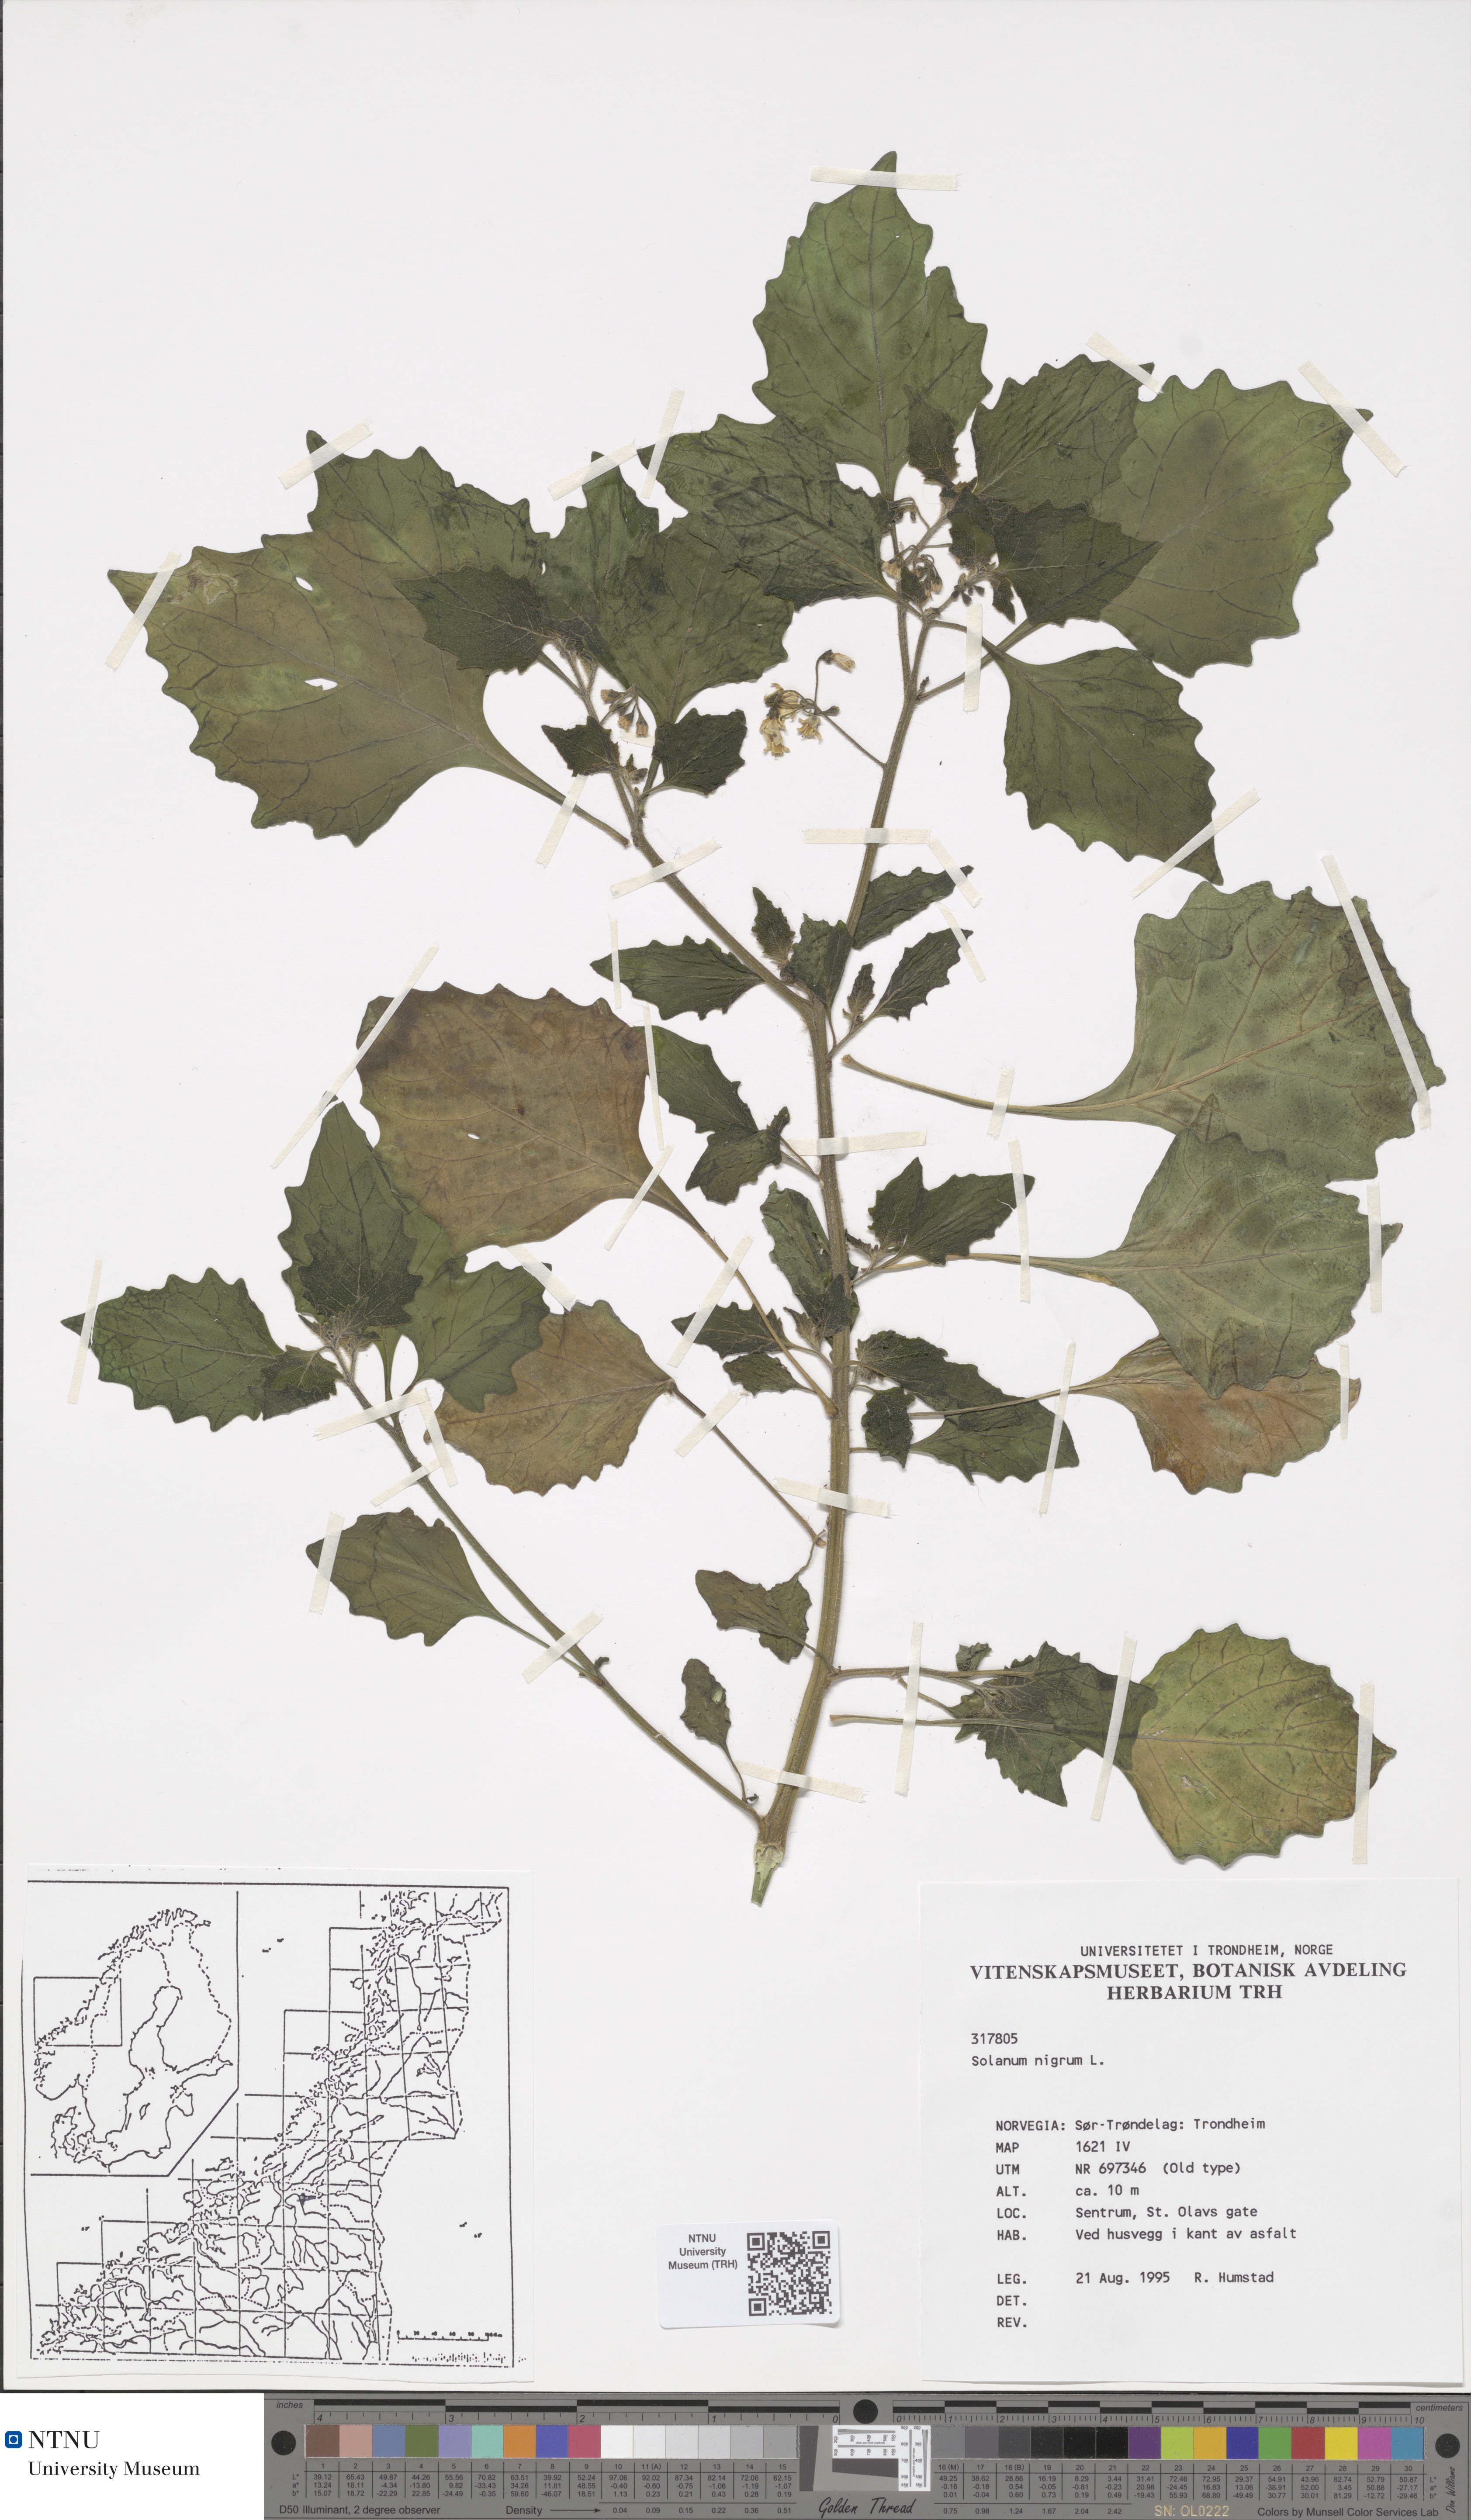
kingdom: Plantae
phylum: Tracheophyta
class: Magnoliopsida
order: Solanales
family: Solanaceae
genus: Solanum
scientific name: Solanum nigrum
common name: Black nightshade
